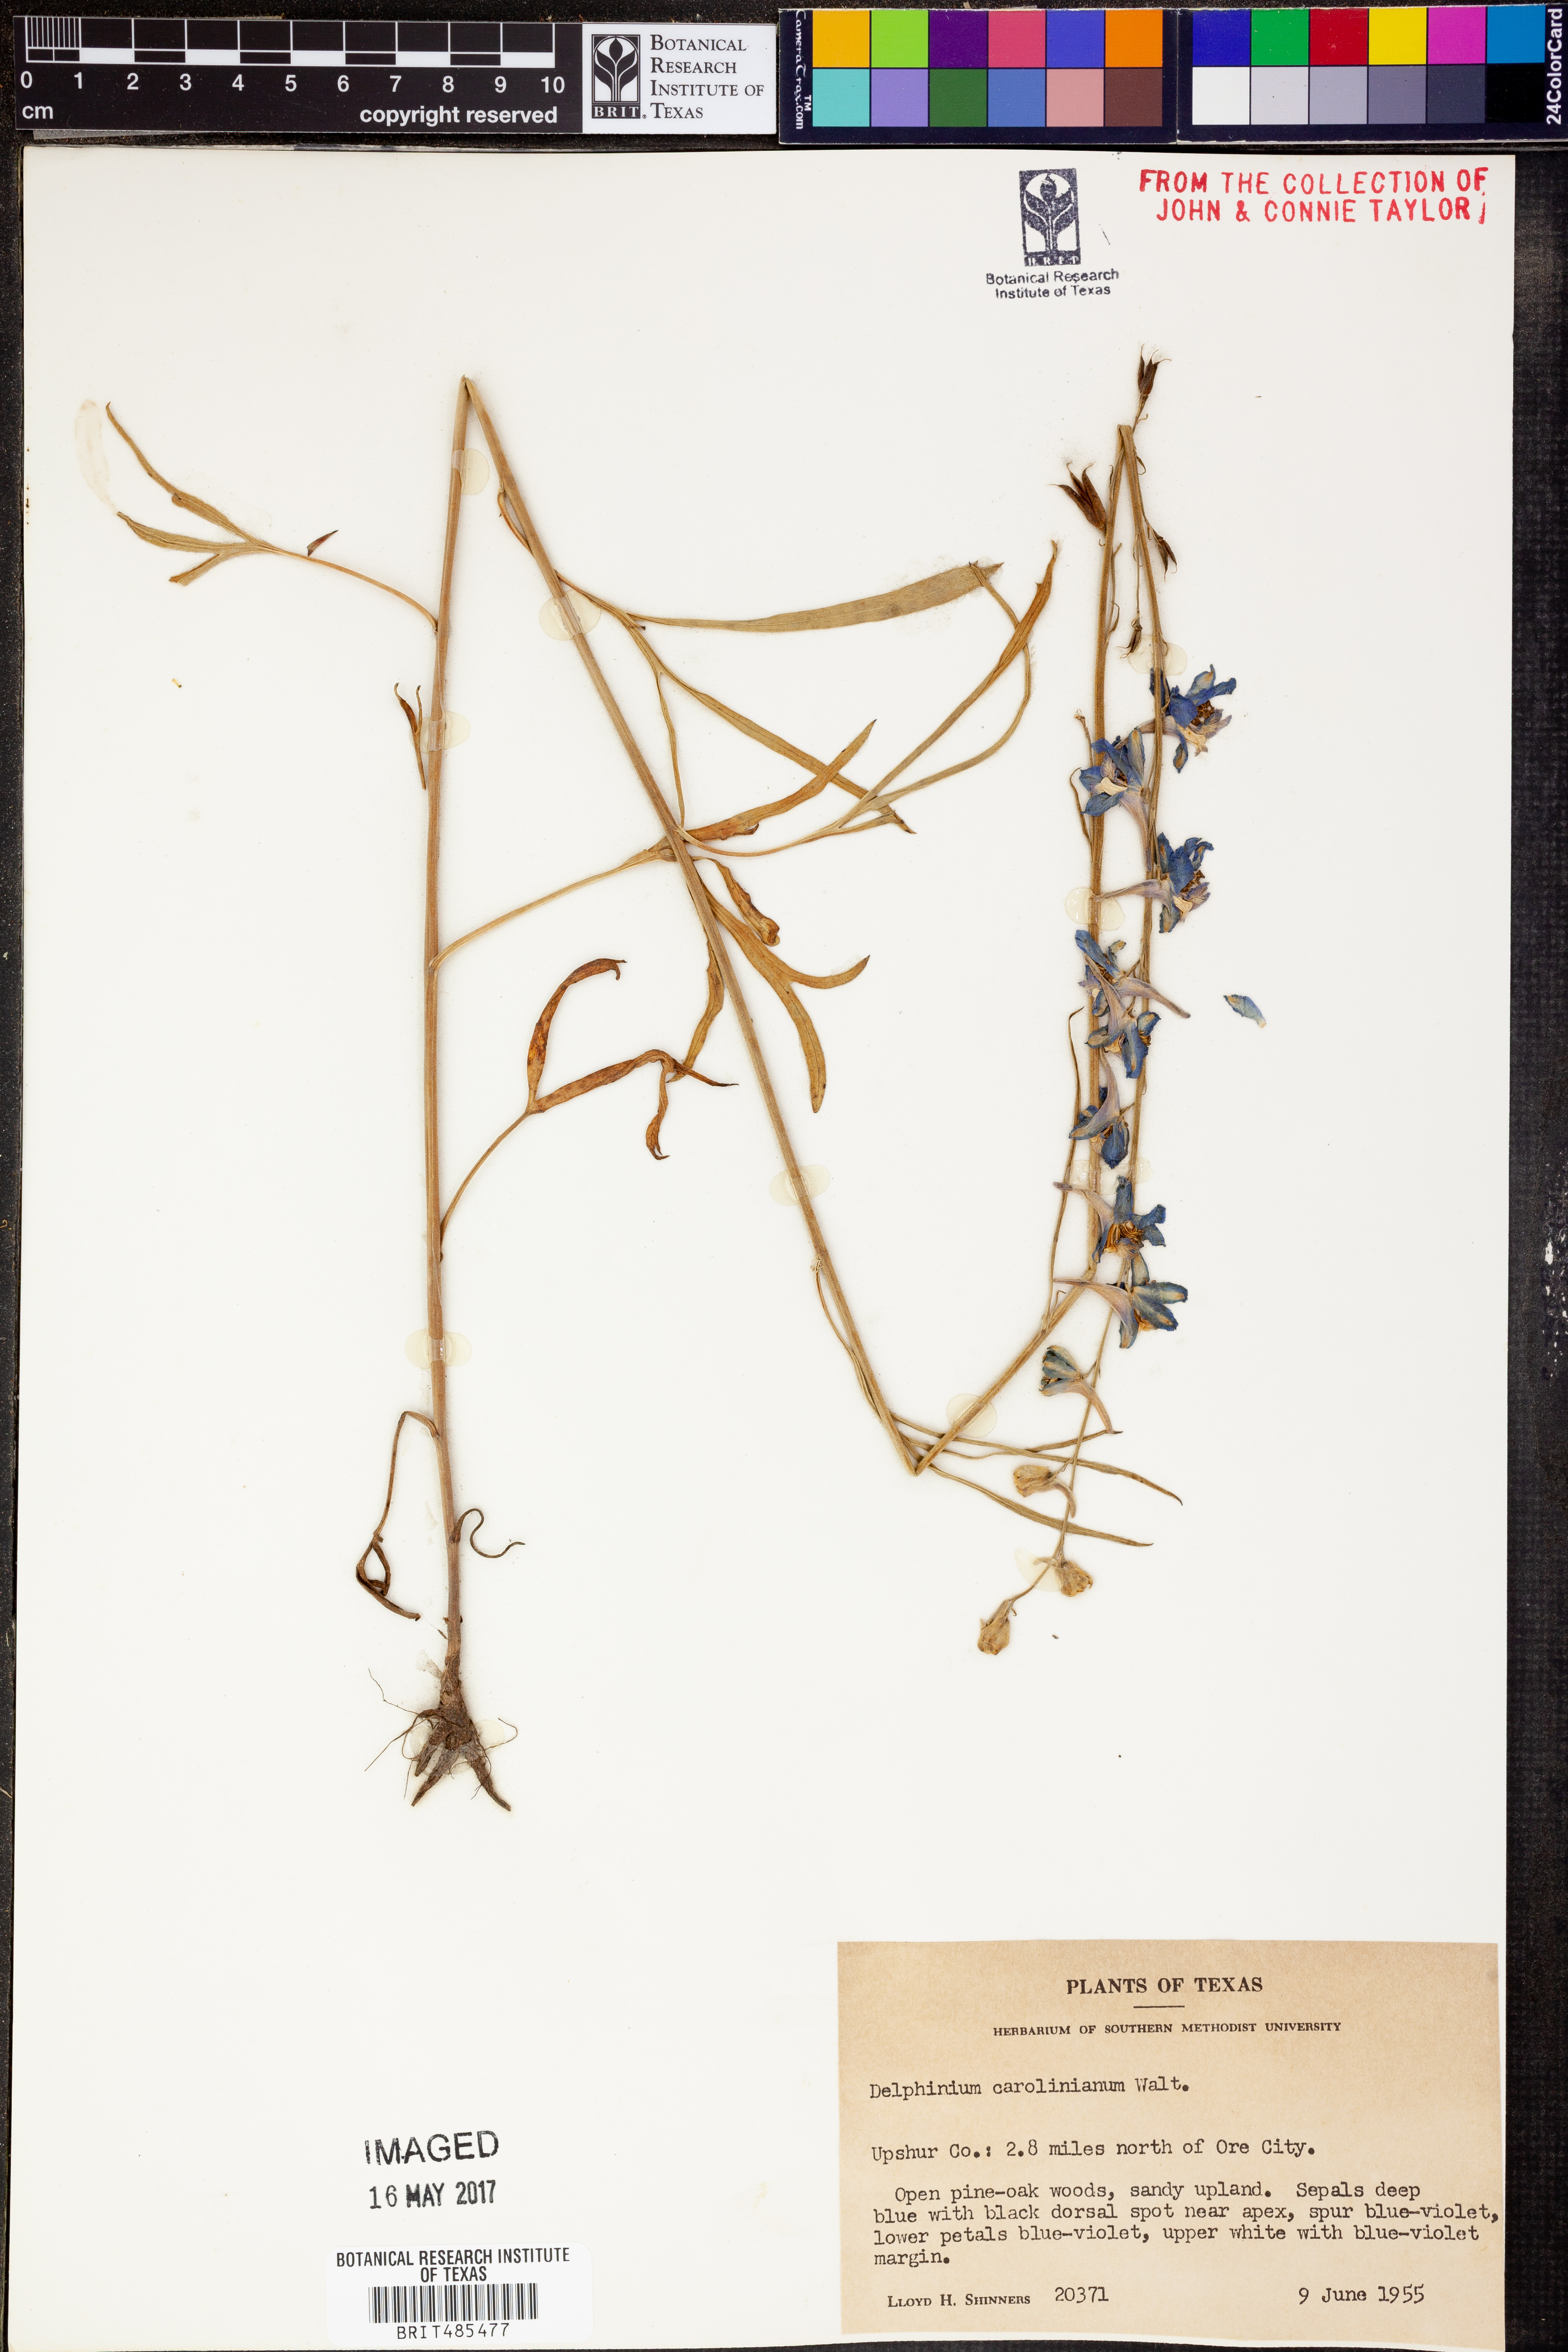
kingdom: Plantae
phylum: Tracheophyta
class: Magnoliopsida
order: Ranunculales
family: Ranunculaceae
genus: Delphinium
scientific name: Delphinium carolinianum
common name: Carolina larkspur
